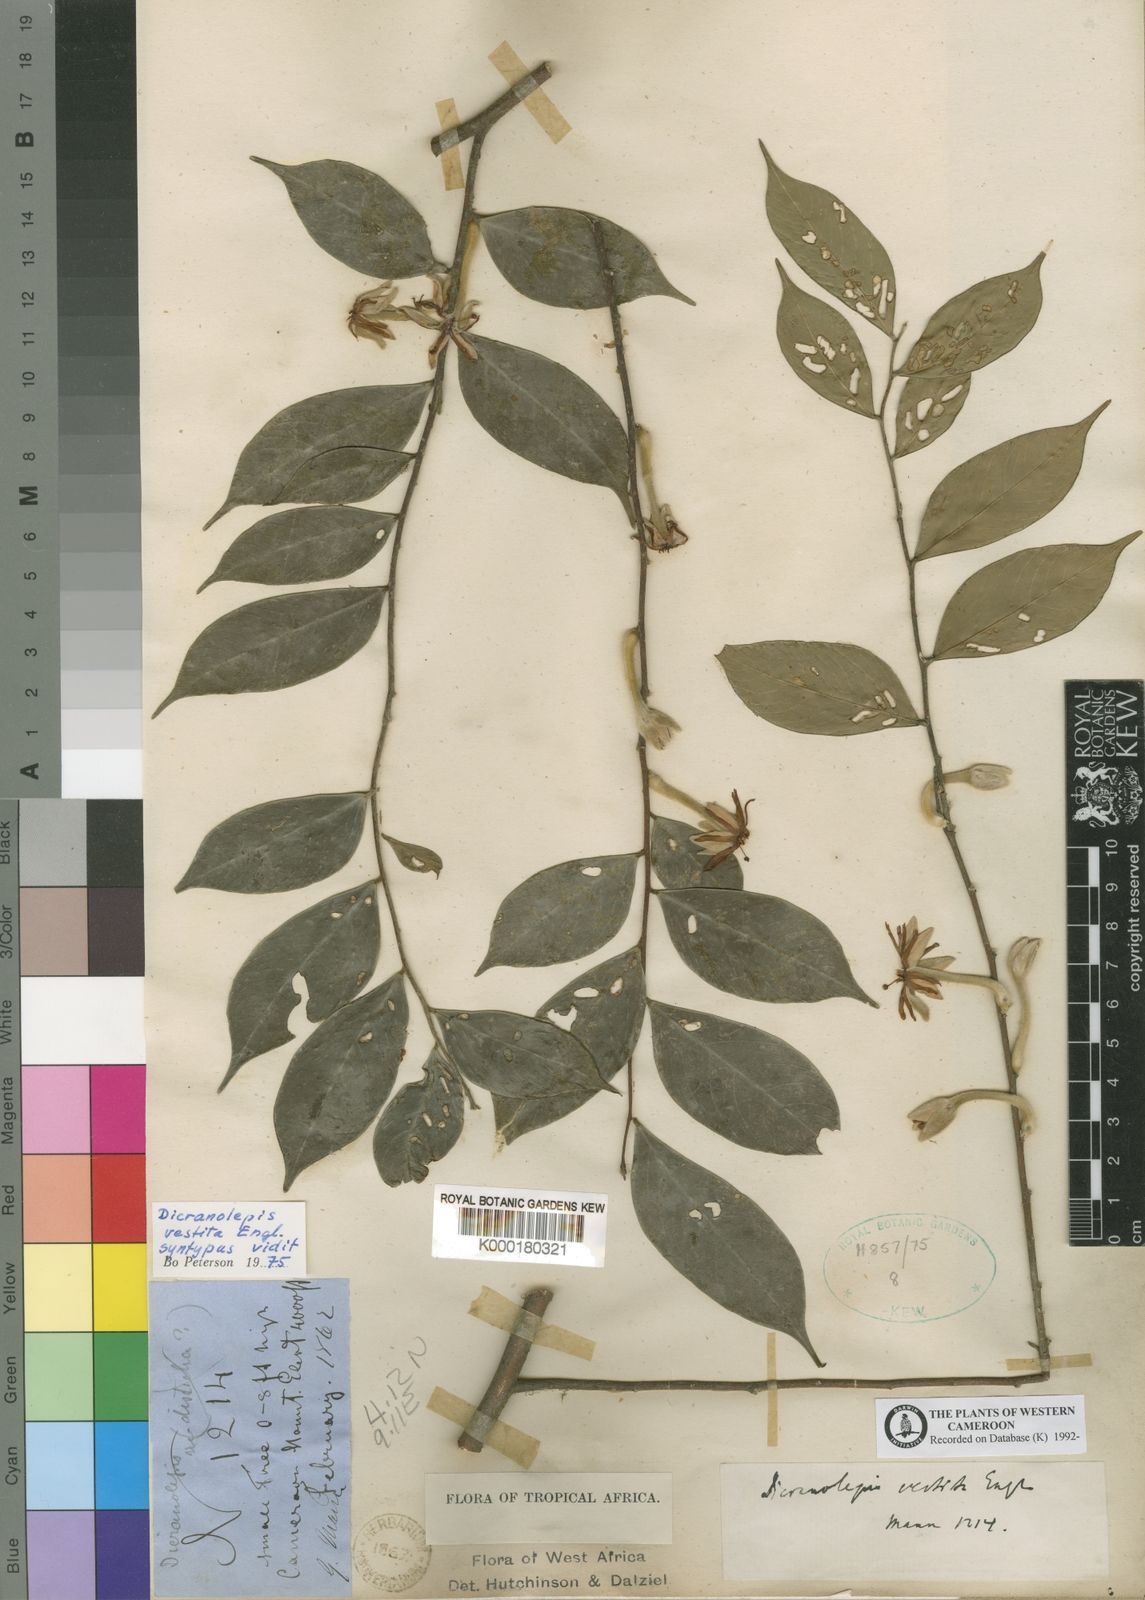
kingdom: Plantae
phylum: Tracheophyta
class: Magnoliopsida
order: Malvales
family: Thymelaeaceae
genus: Dicranolepis
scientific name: Dicranolepis vestita
